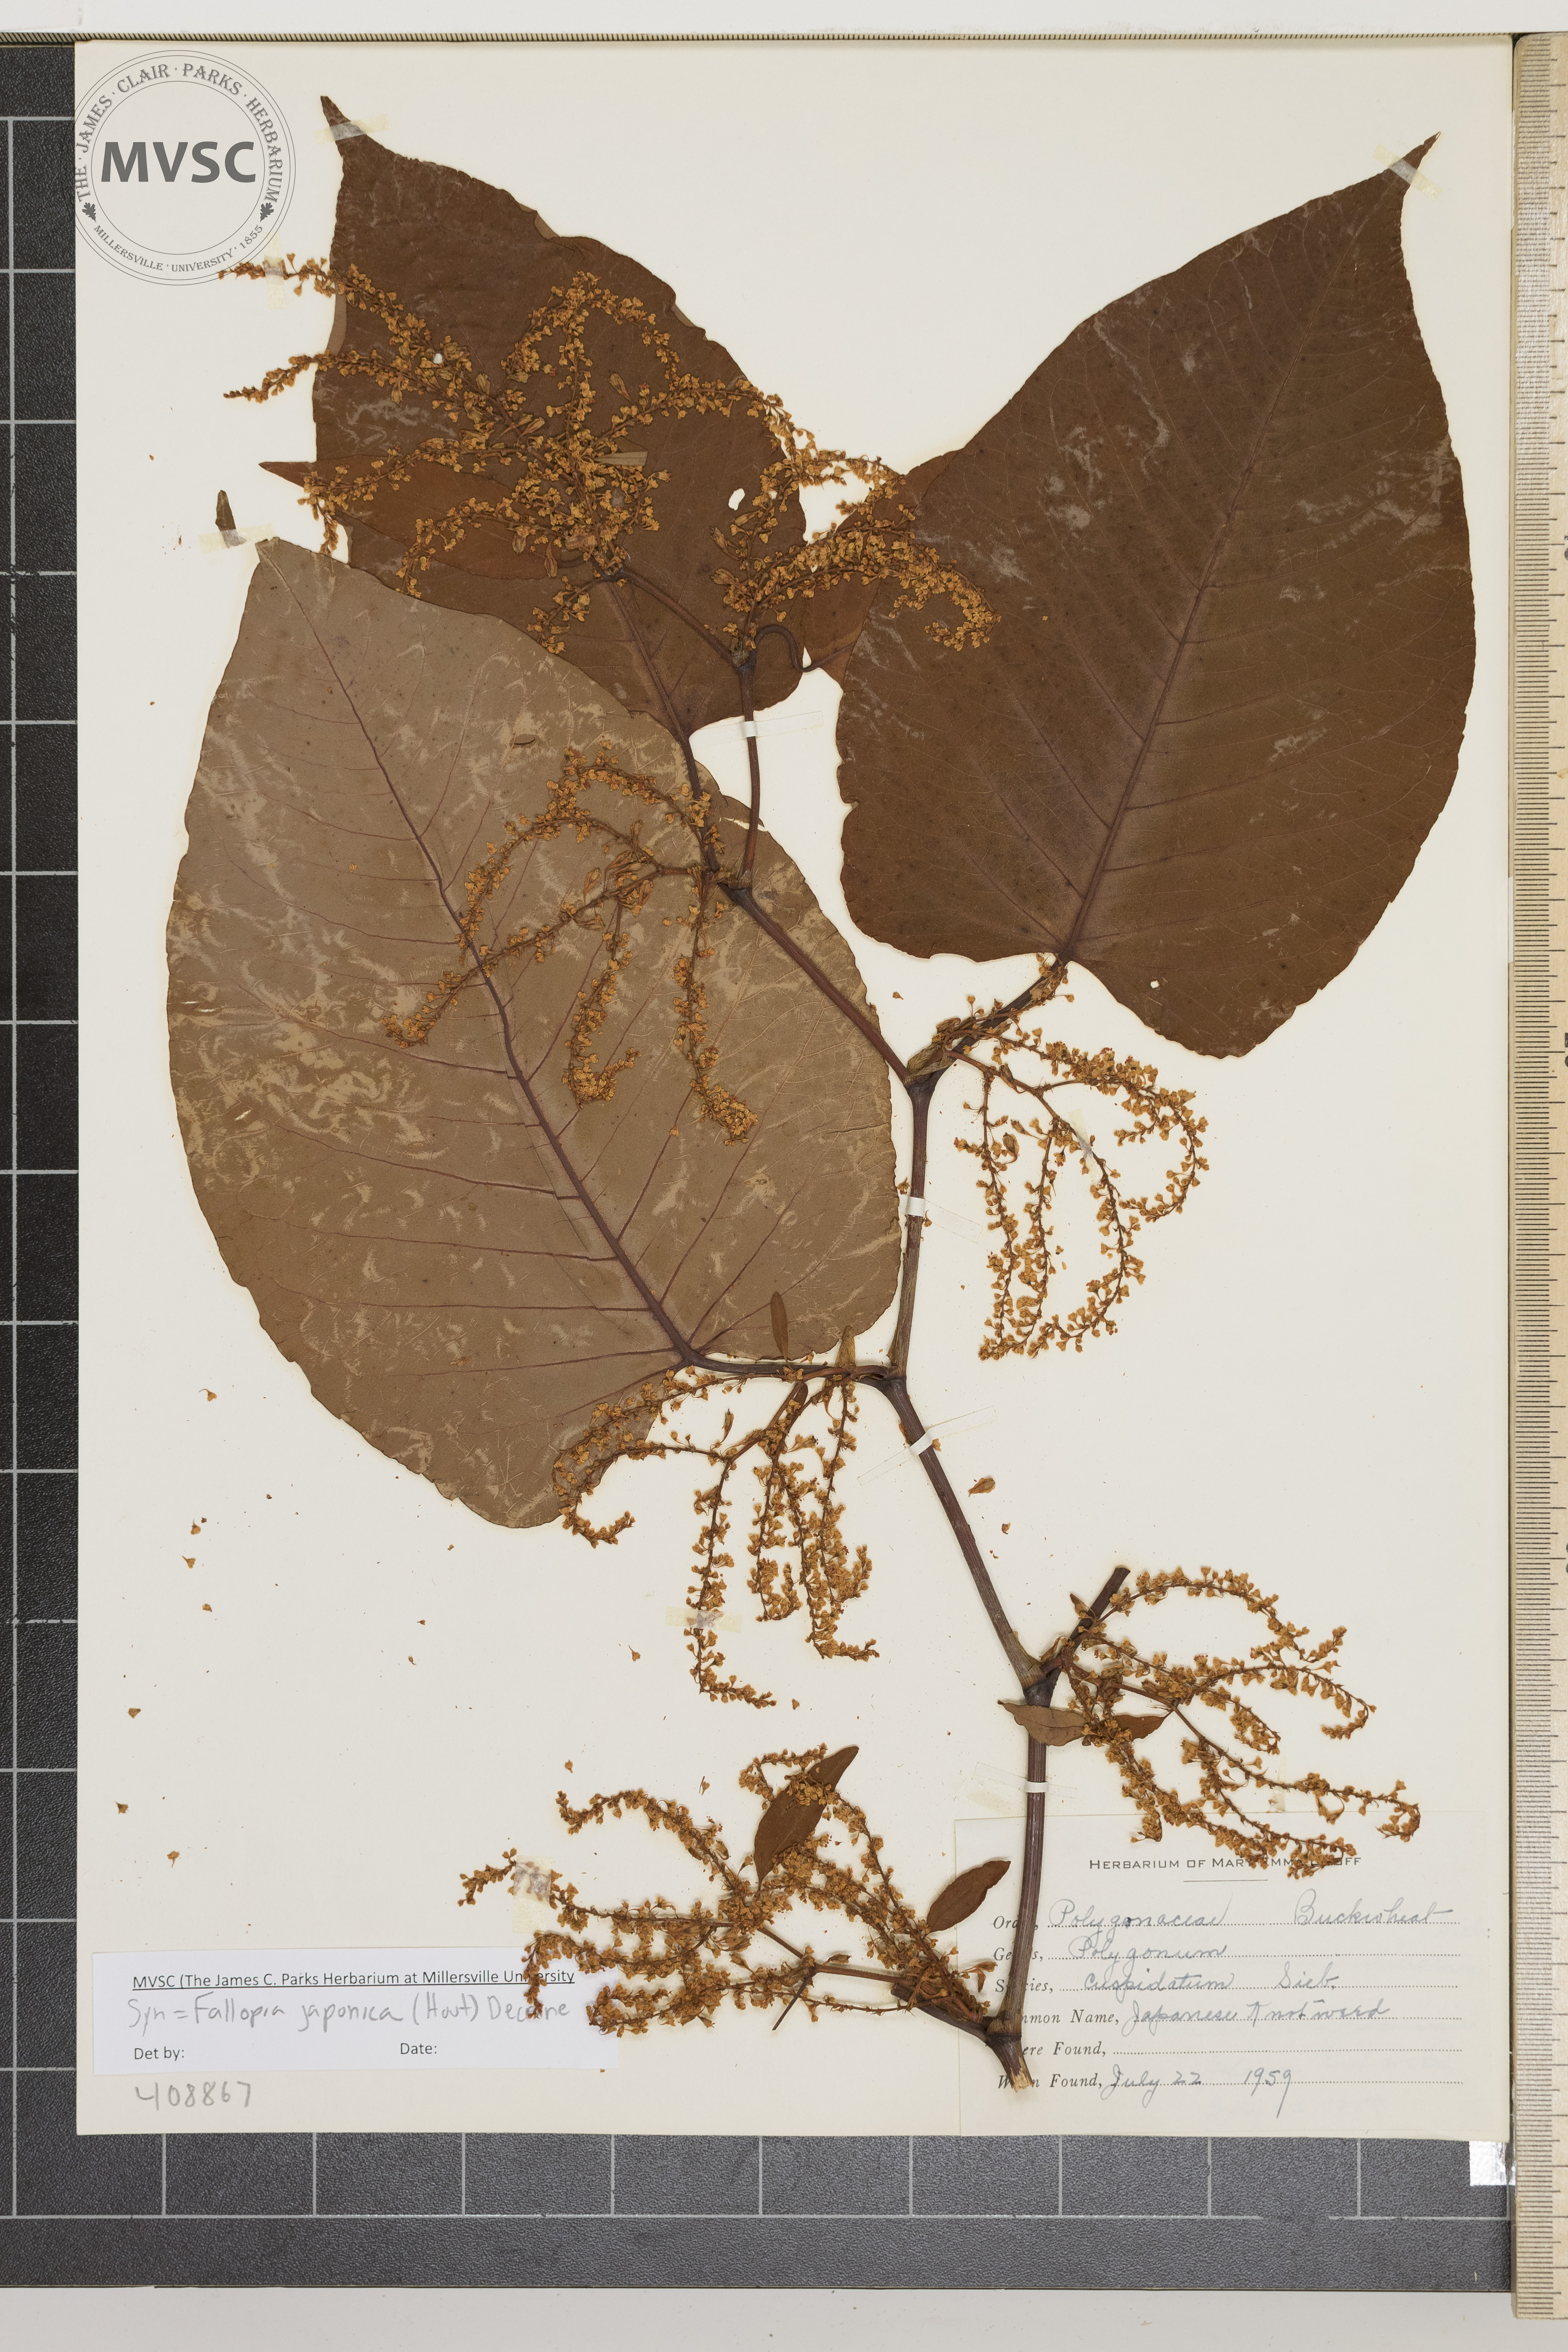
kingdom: Plantae
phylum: Tracheophyta
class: Magnoliopsida
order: Caryophyllales
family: Polygonaceae
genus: Reynoutria
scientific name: Reynoutria japonica
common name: Japanese knotweed
